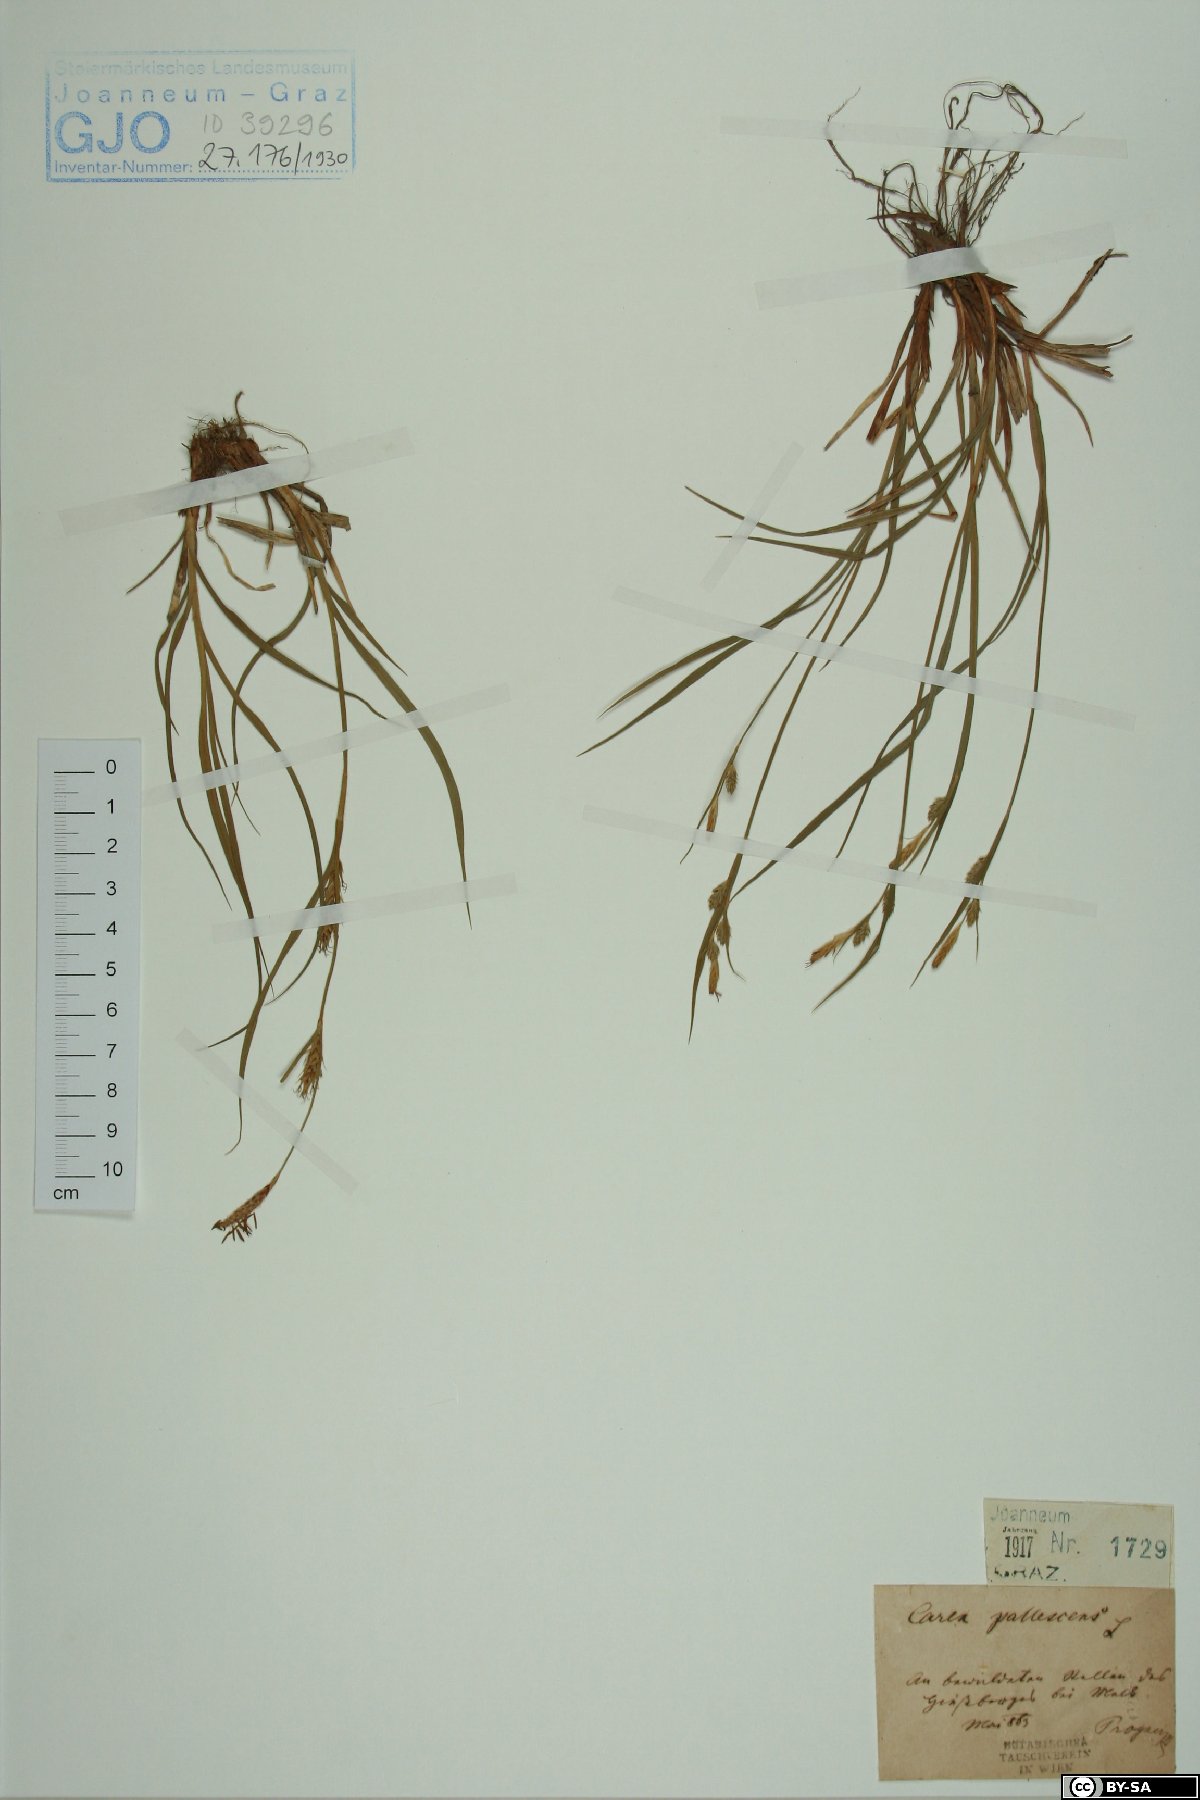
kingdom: Plantae
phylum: Tracheophyta
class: Liliopsida
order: Poales
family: Cyperaceae
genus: Carex
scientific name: Carex pallescens
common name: Pale sedge
